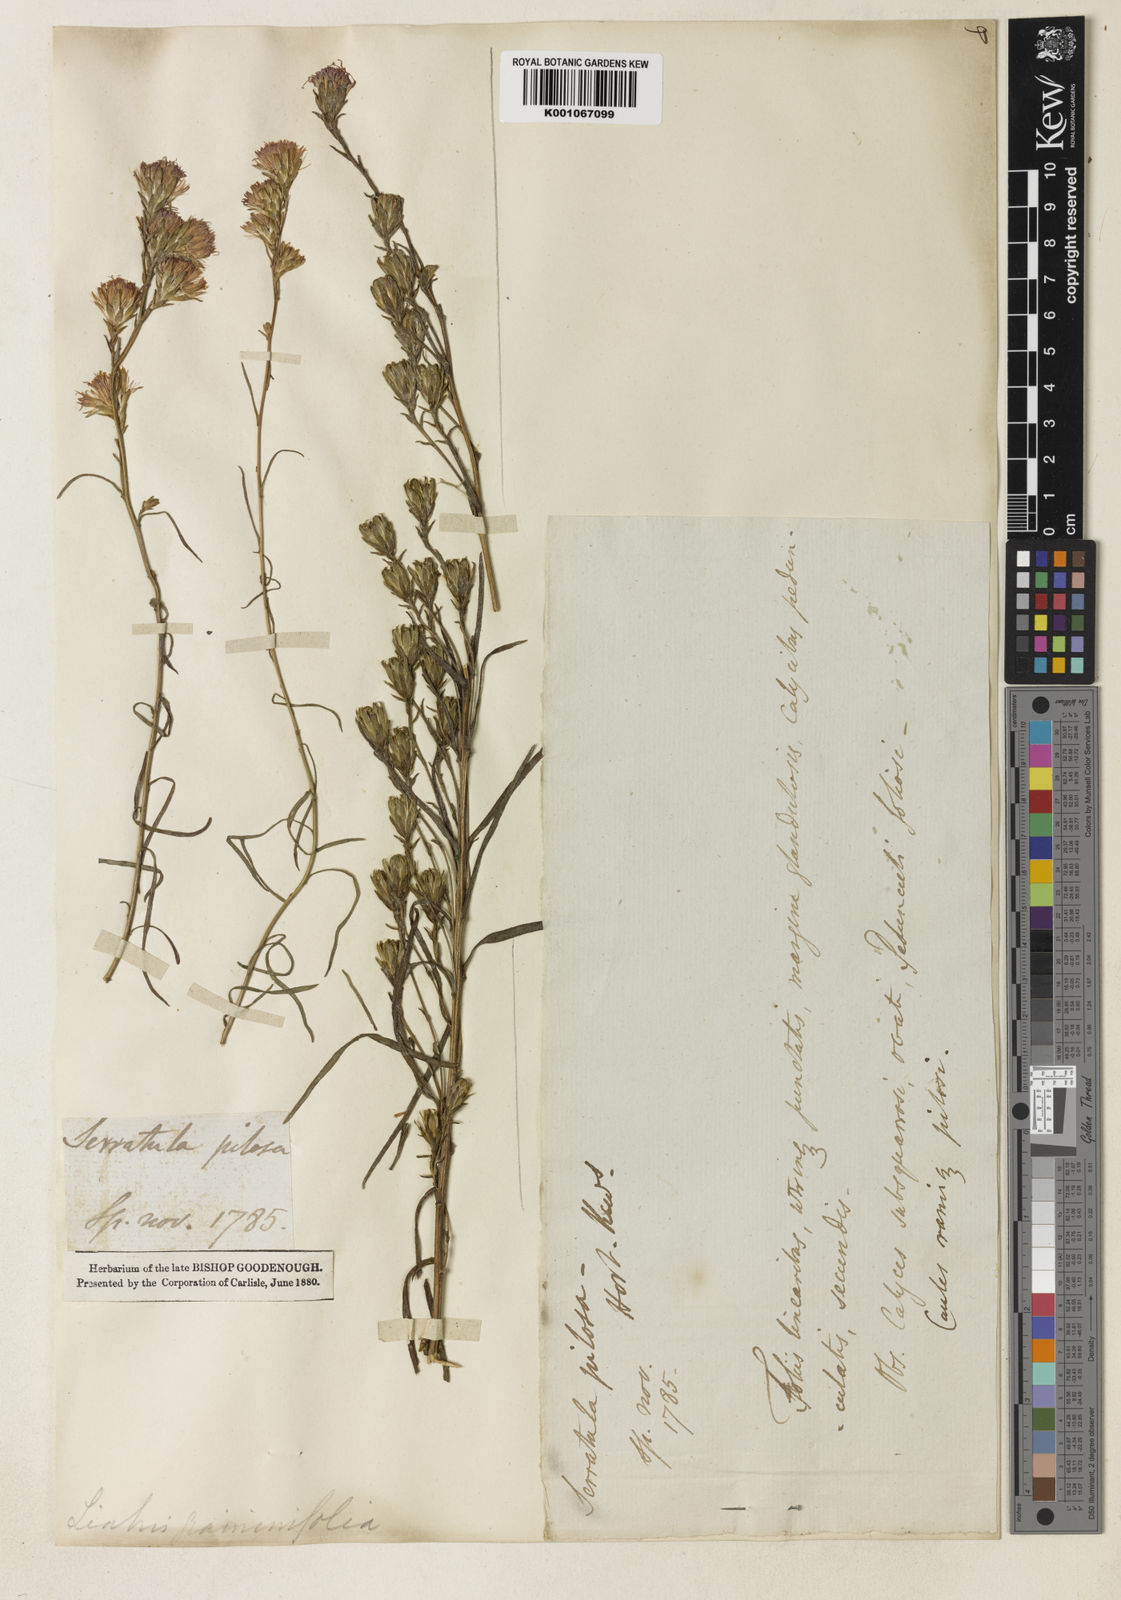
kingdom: Plantae
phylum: Tracheophyta
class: Magnoliopsida
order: Asterales
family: Asteraceae
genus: Liatris
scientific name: Liatris pilosa
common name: Grass-leaf gayfeather
